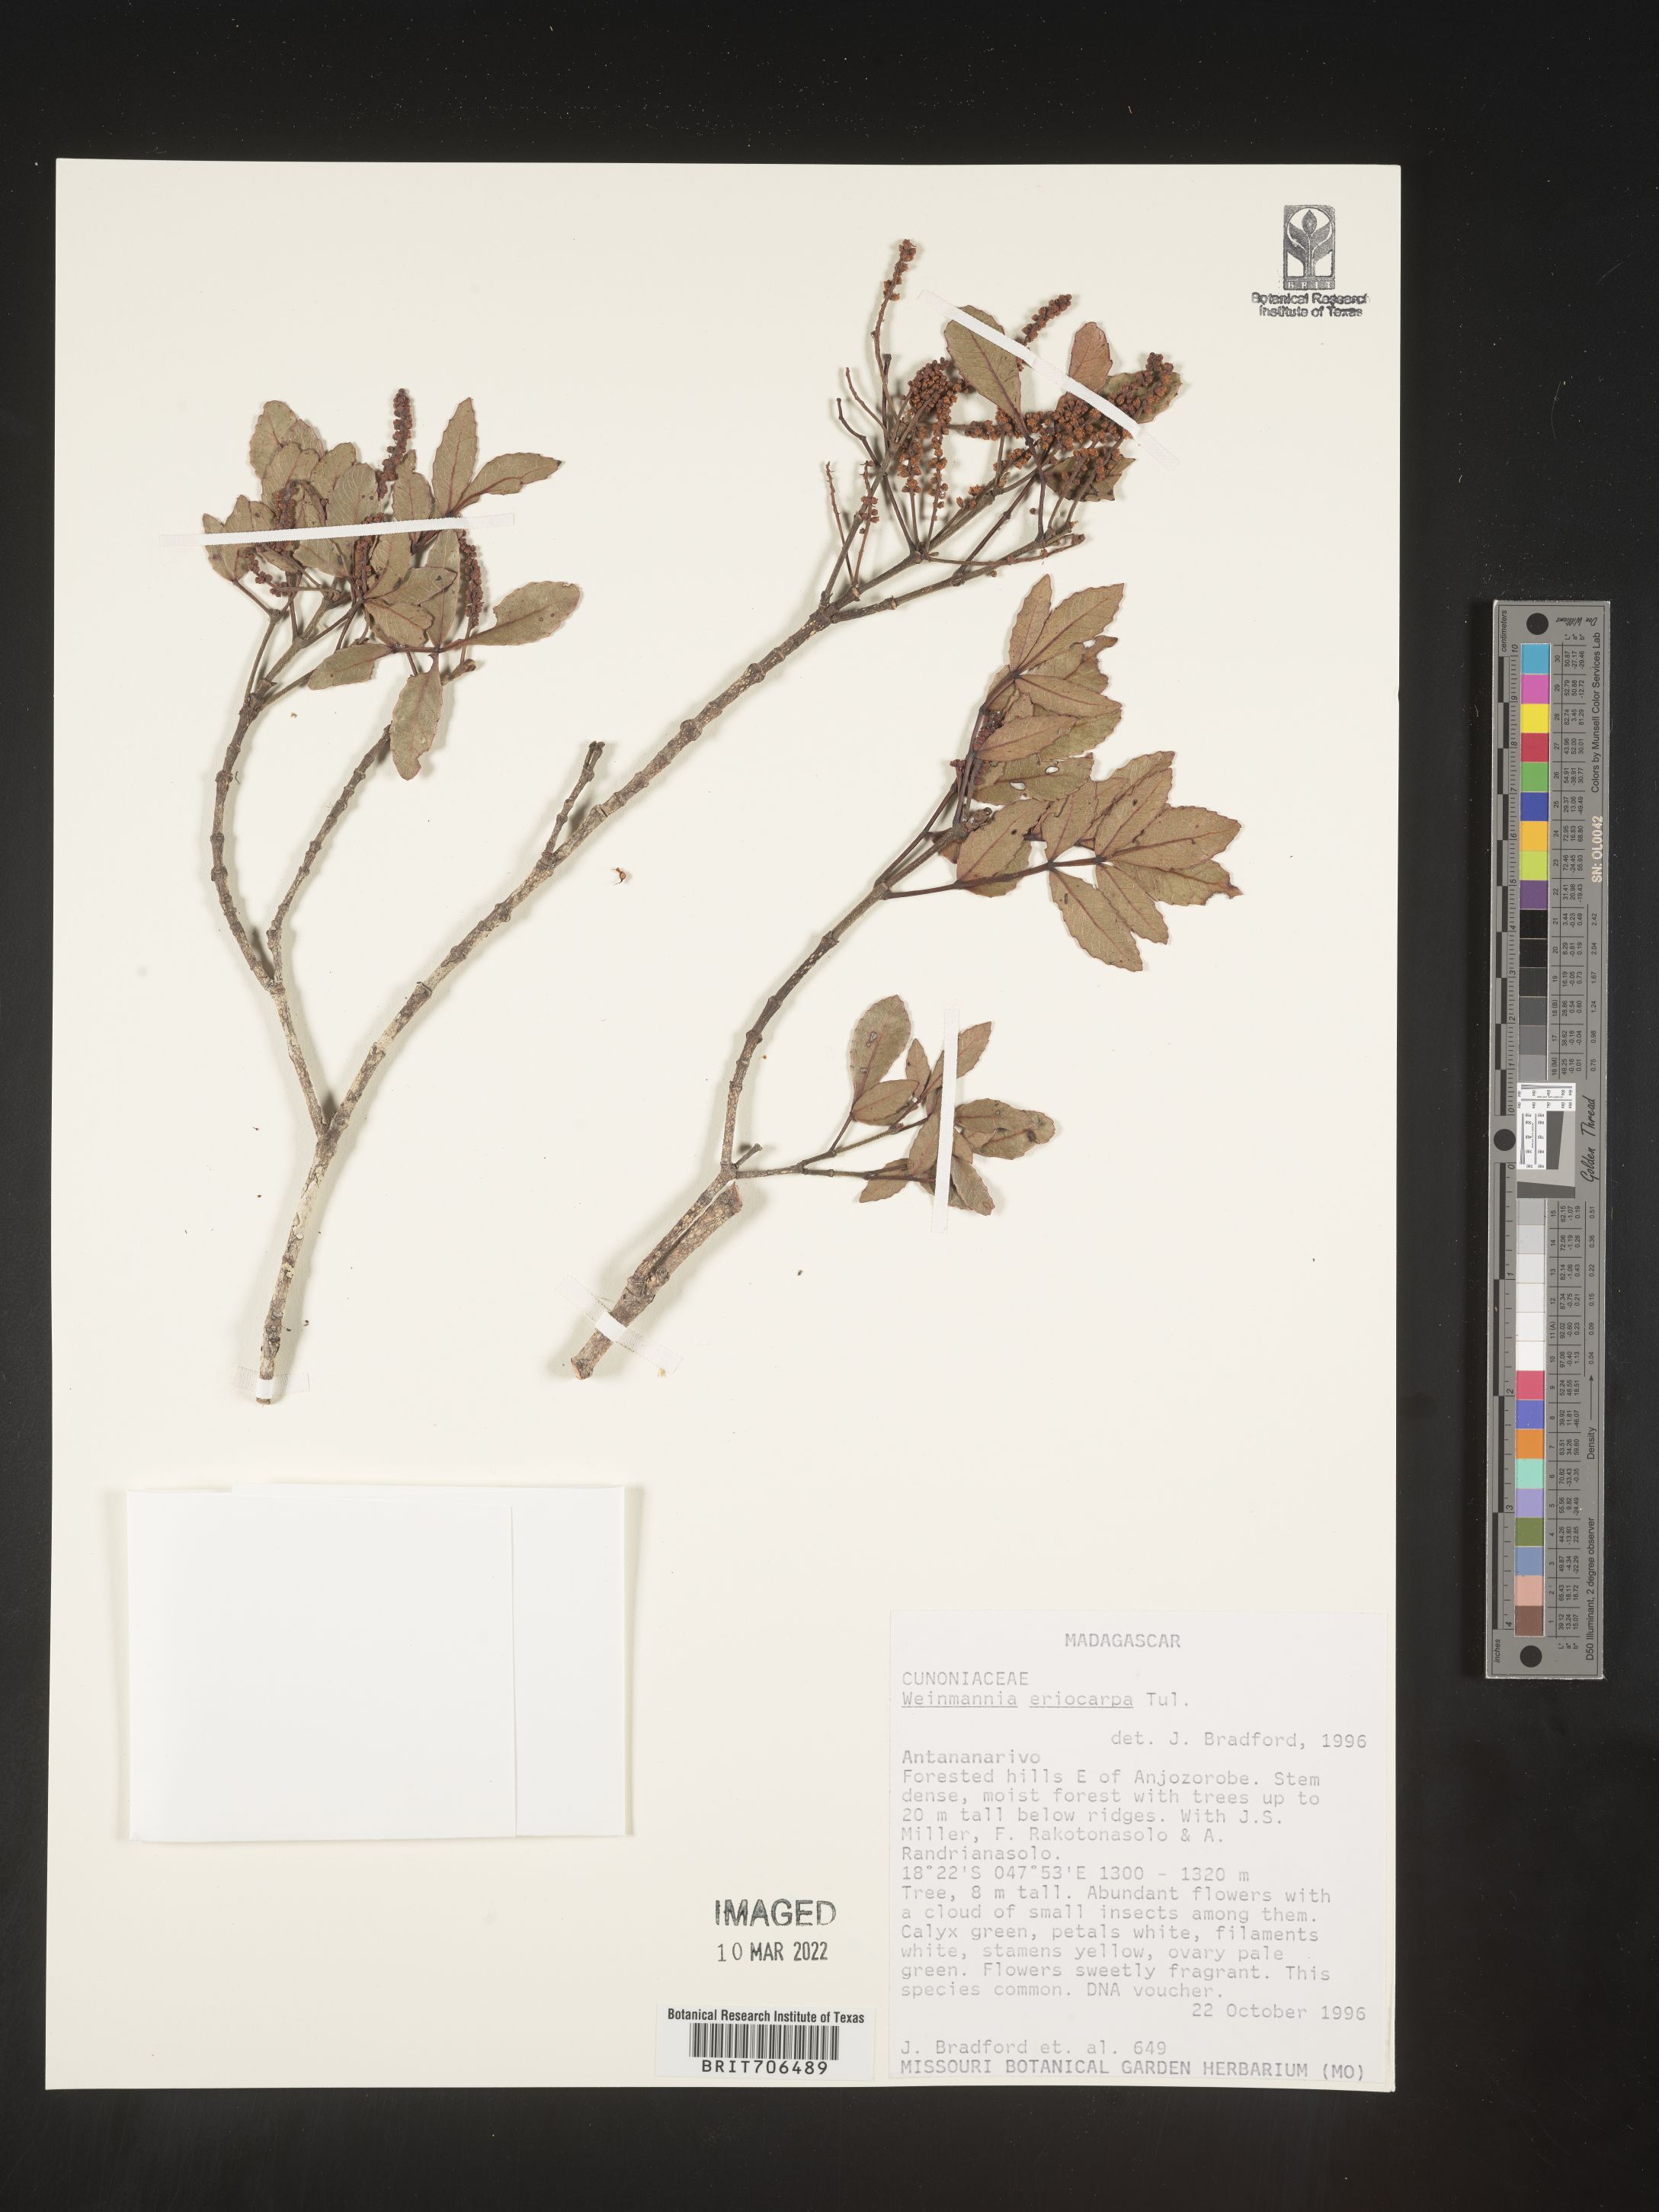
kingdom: Plantae
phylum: Tracheophyta
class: Magnoliopsida
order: Oxalidales
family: Cunoniaceae
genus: Weinmannia
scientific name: Weinmannia
